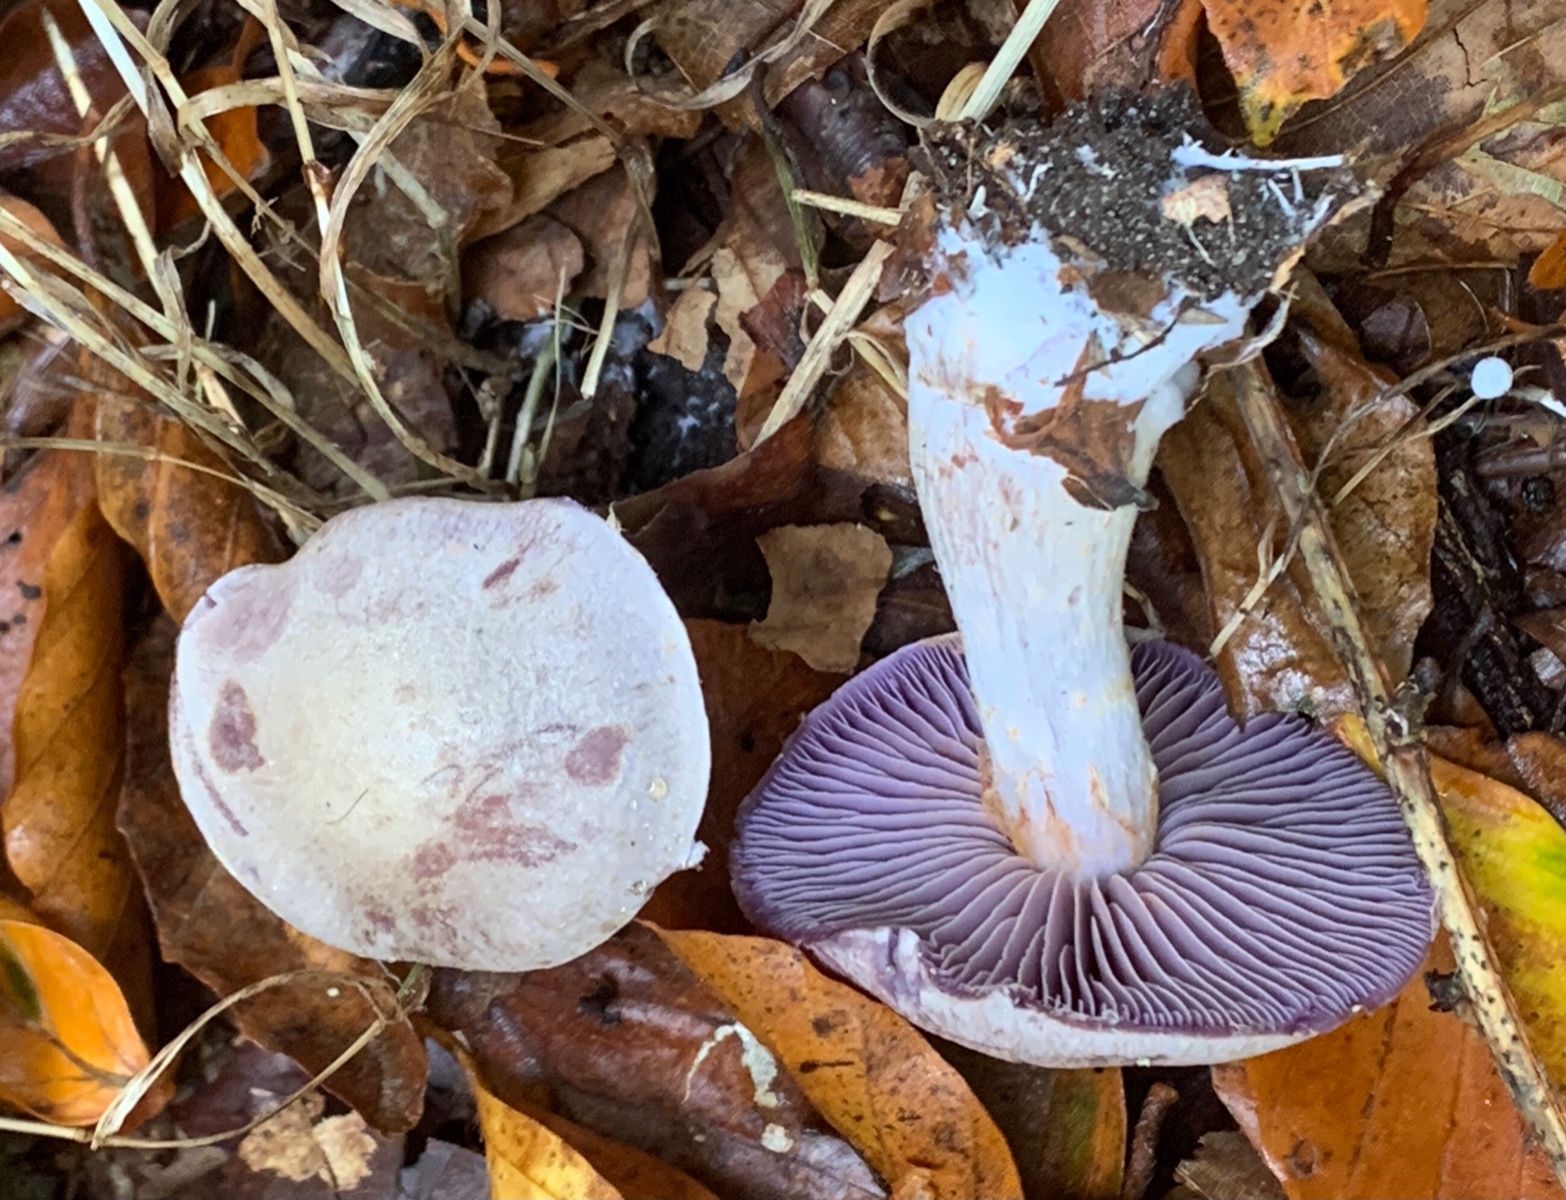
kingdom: Fungi
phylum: Basidiomycota
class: Agaricomycetes
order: Agaricales
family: Cortinariaceae
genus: Cortinarius
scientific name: Cortinarius
